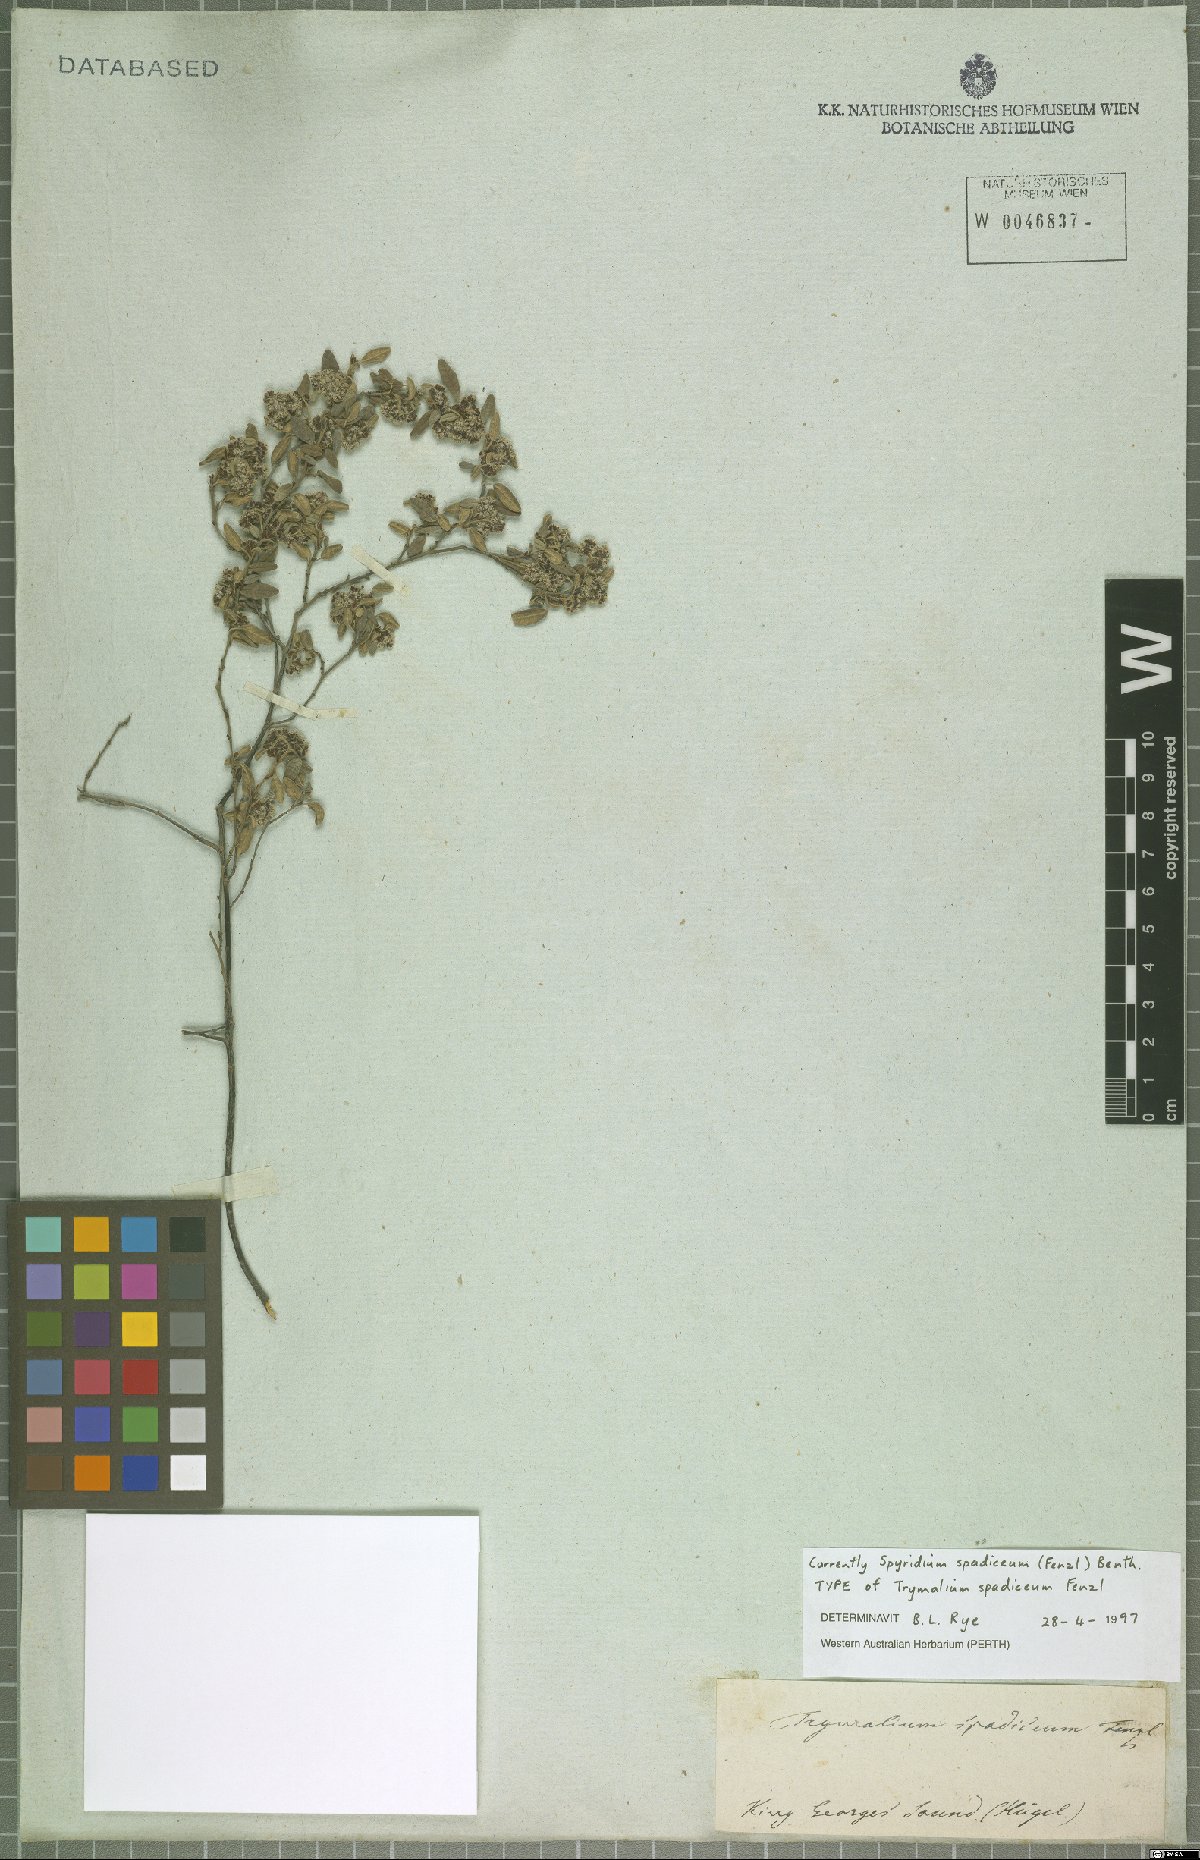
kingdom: Plantae
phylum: Tracheophyta
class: Magnoliopsida
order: Rosales
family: Rhamnaceae
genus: Spyridium
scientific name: Spyridium spadiceum
